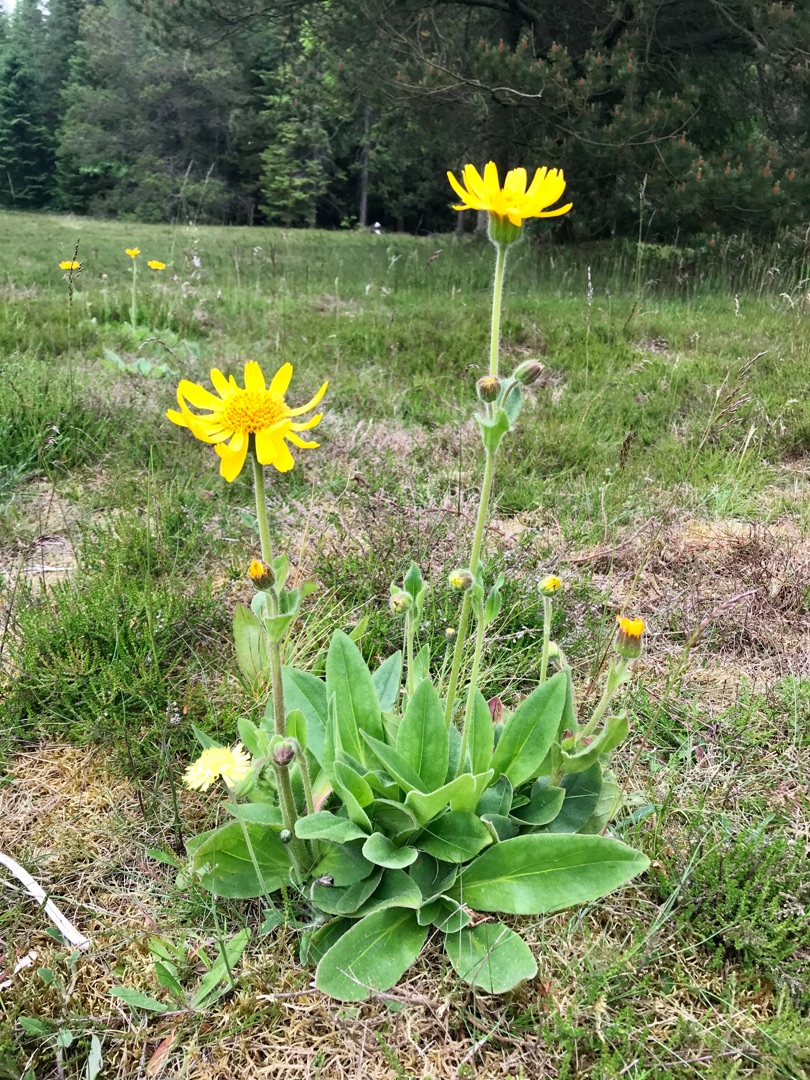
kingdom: Plantae
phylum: Tracheophyta
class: Magnoliopsida
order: Asterales
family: Asteraceae
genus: Arnica
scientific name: Arnica montana
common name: Guldblomme
